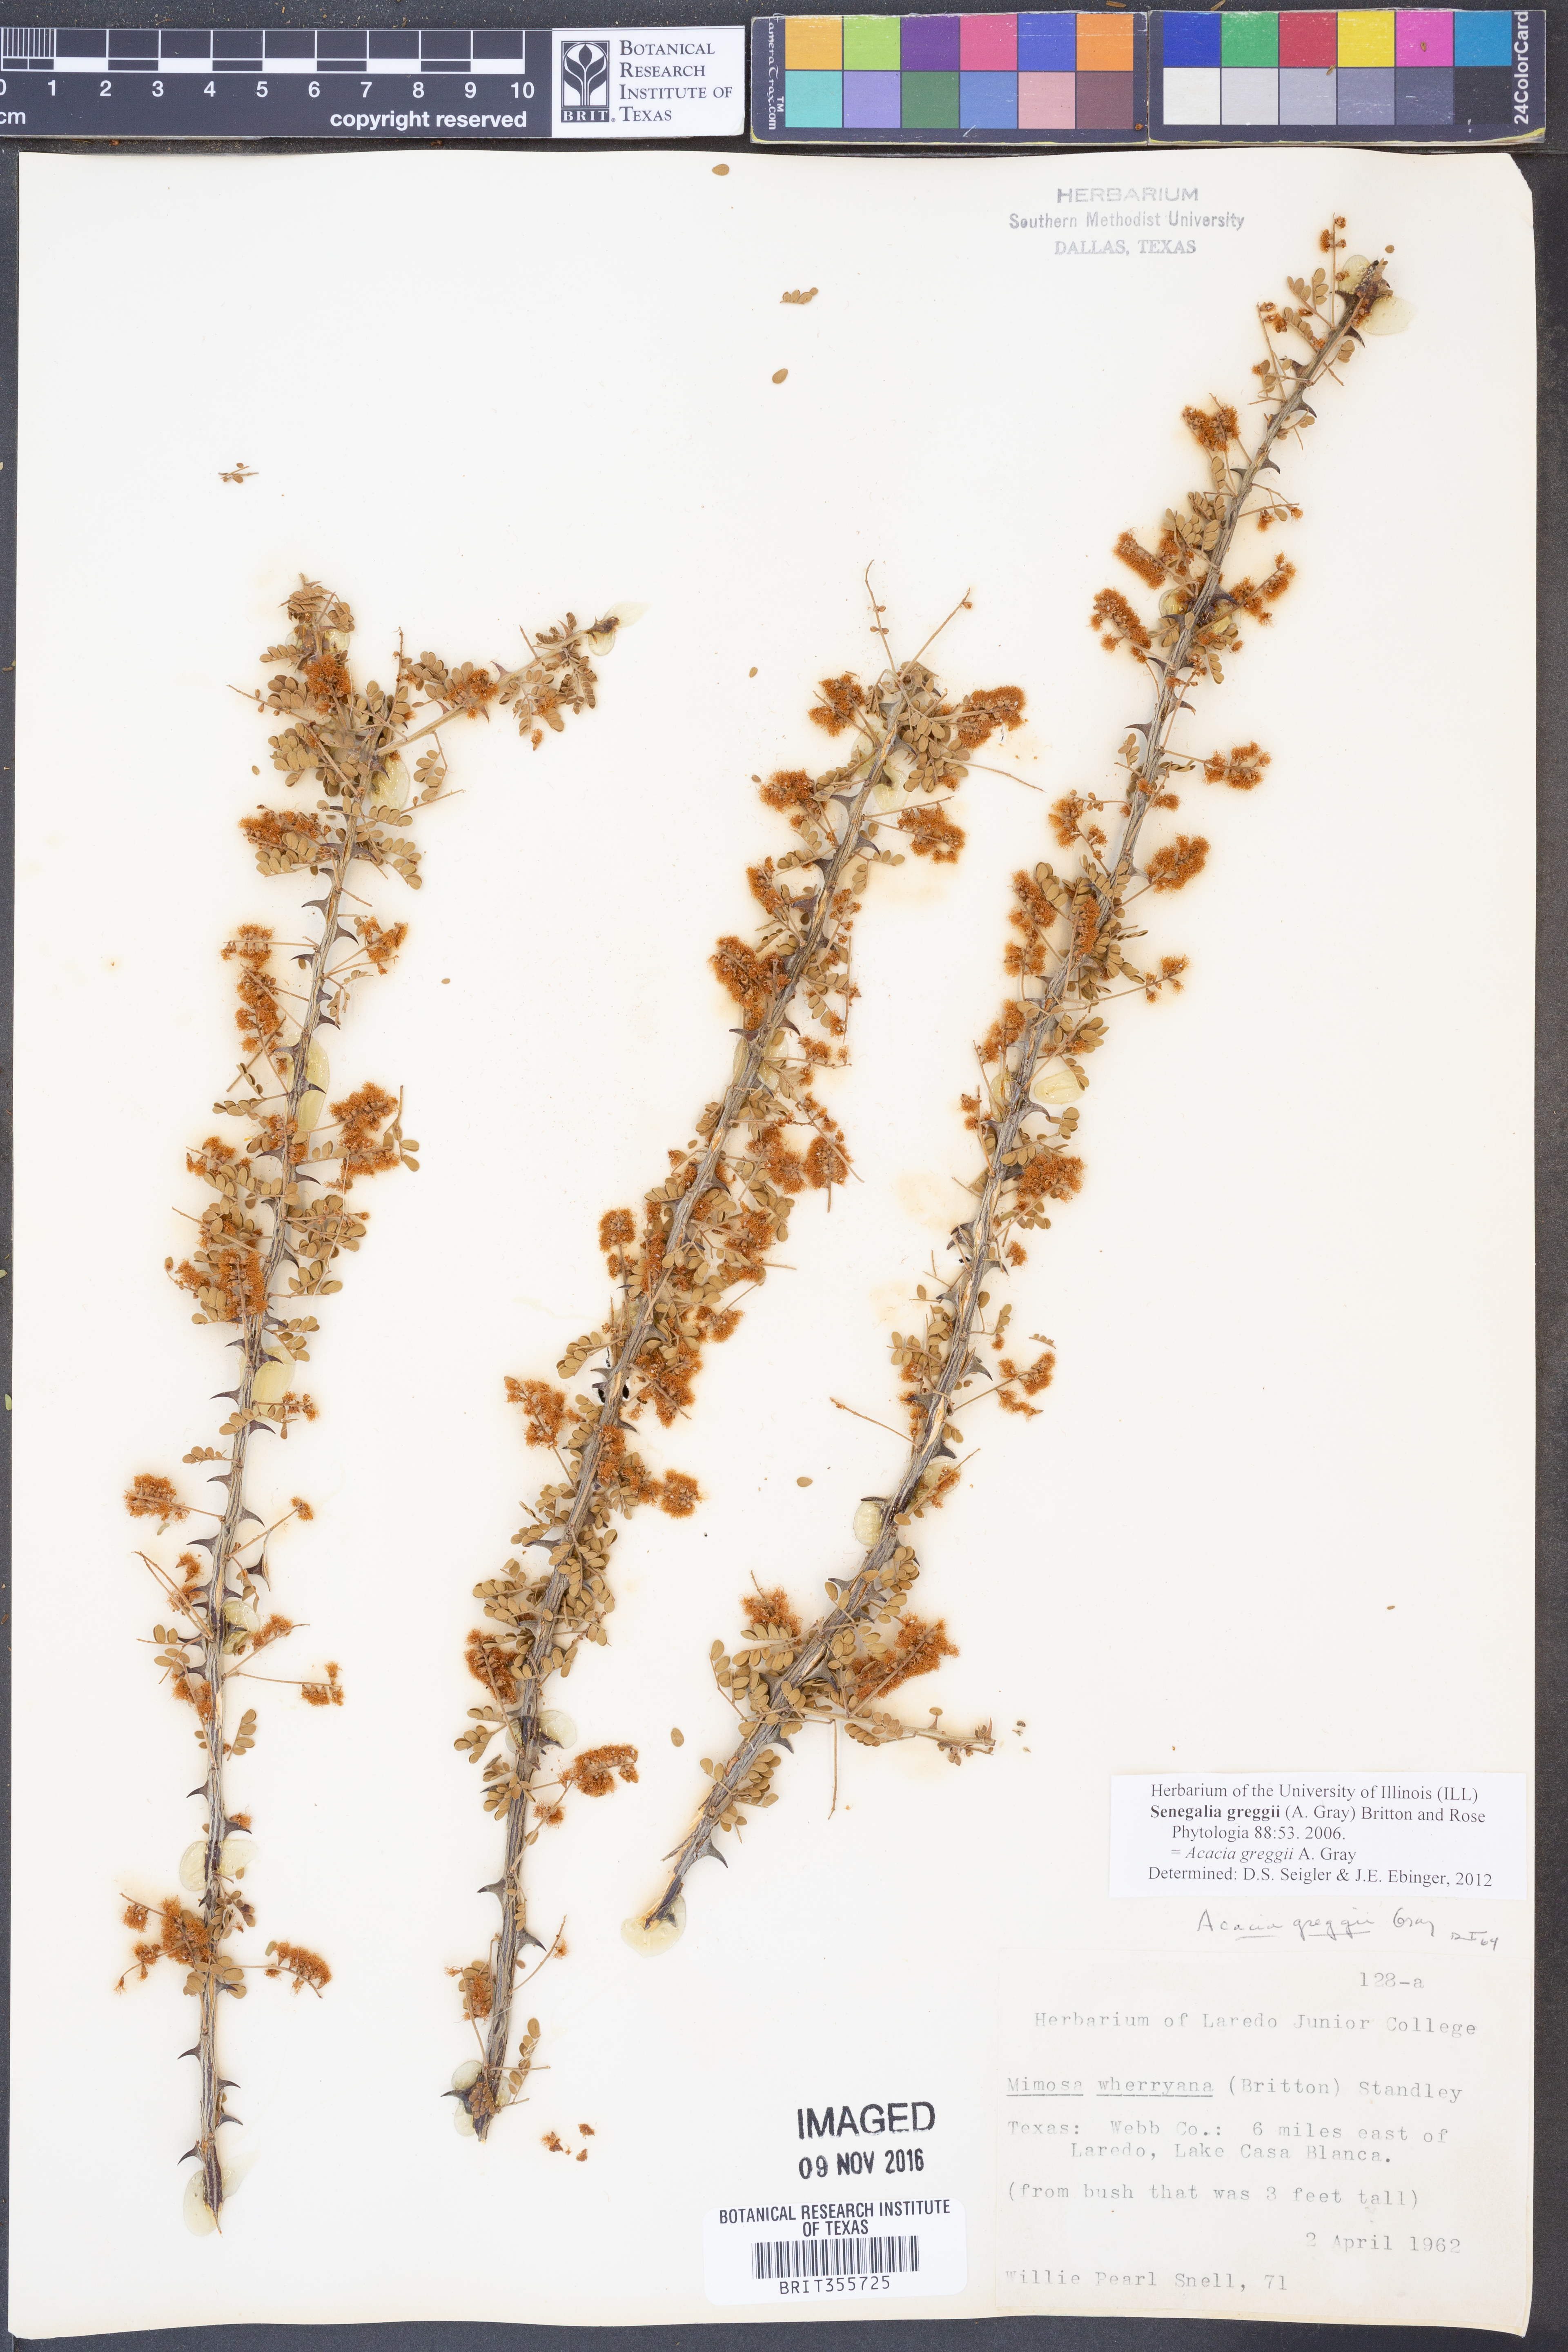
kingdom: Plantae
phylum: Tracheophyta
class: Magnoliopsida
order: Fabales
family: Fabaceae
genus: Senegalia
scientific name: Senegalia greggii
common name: Texas-mimosa
